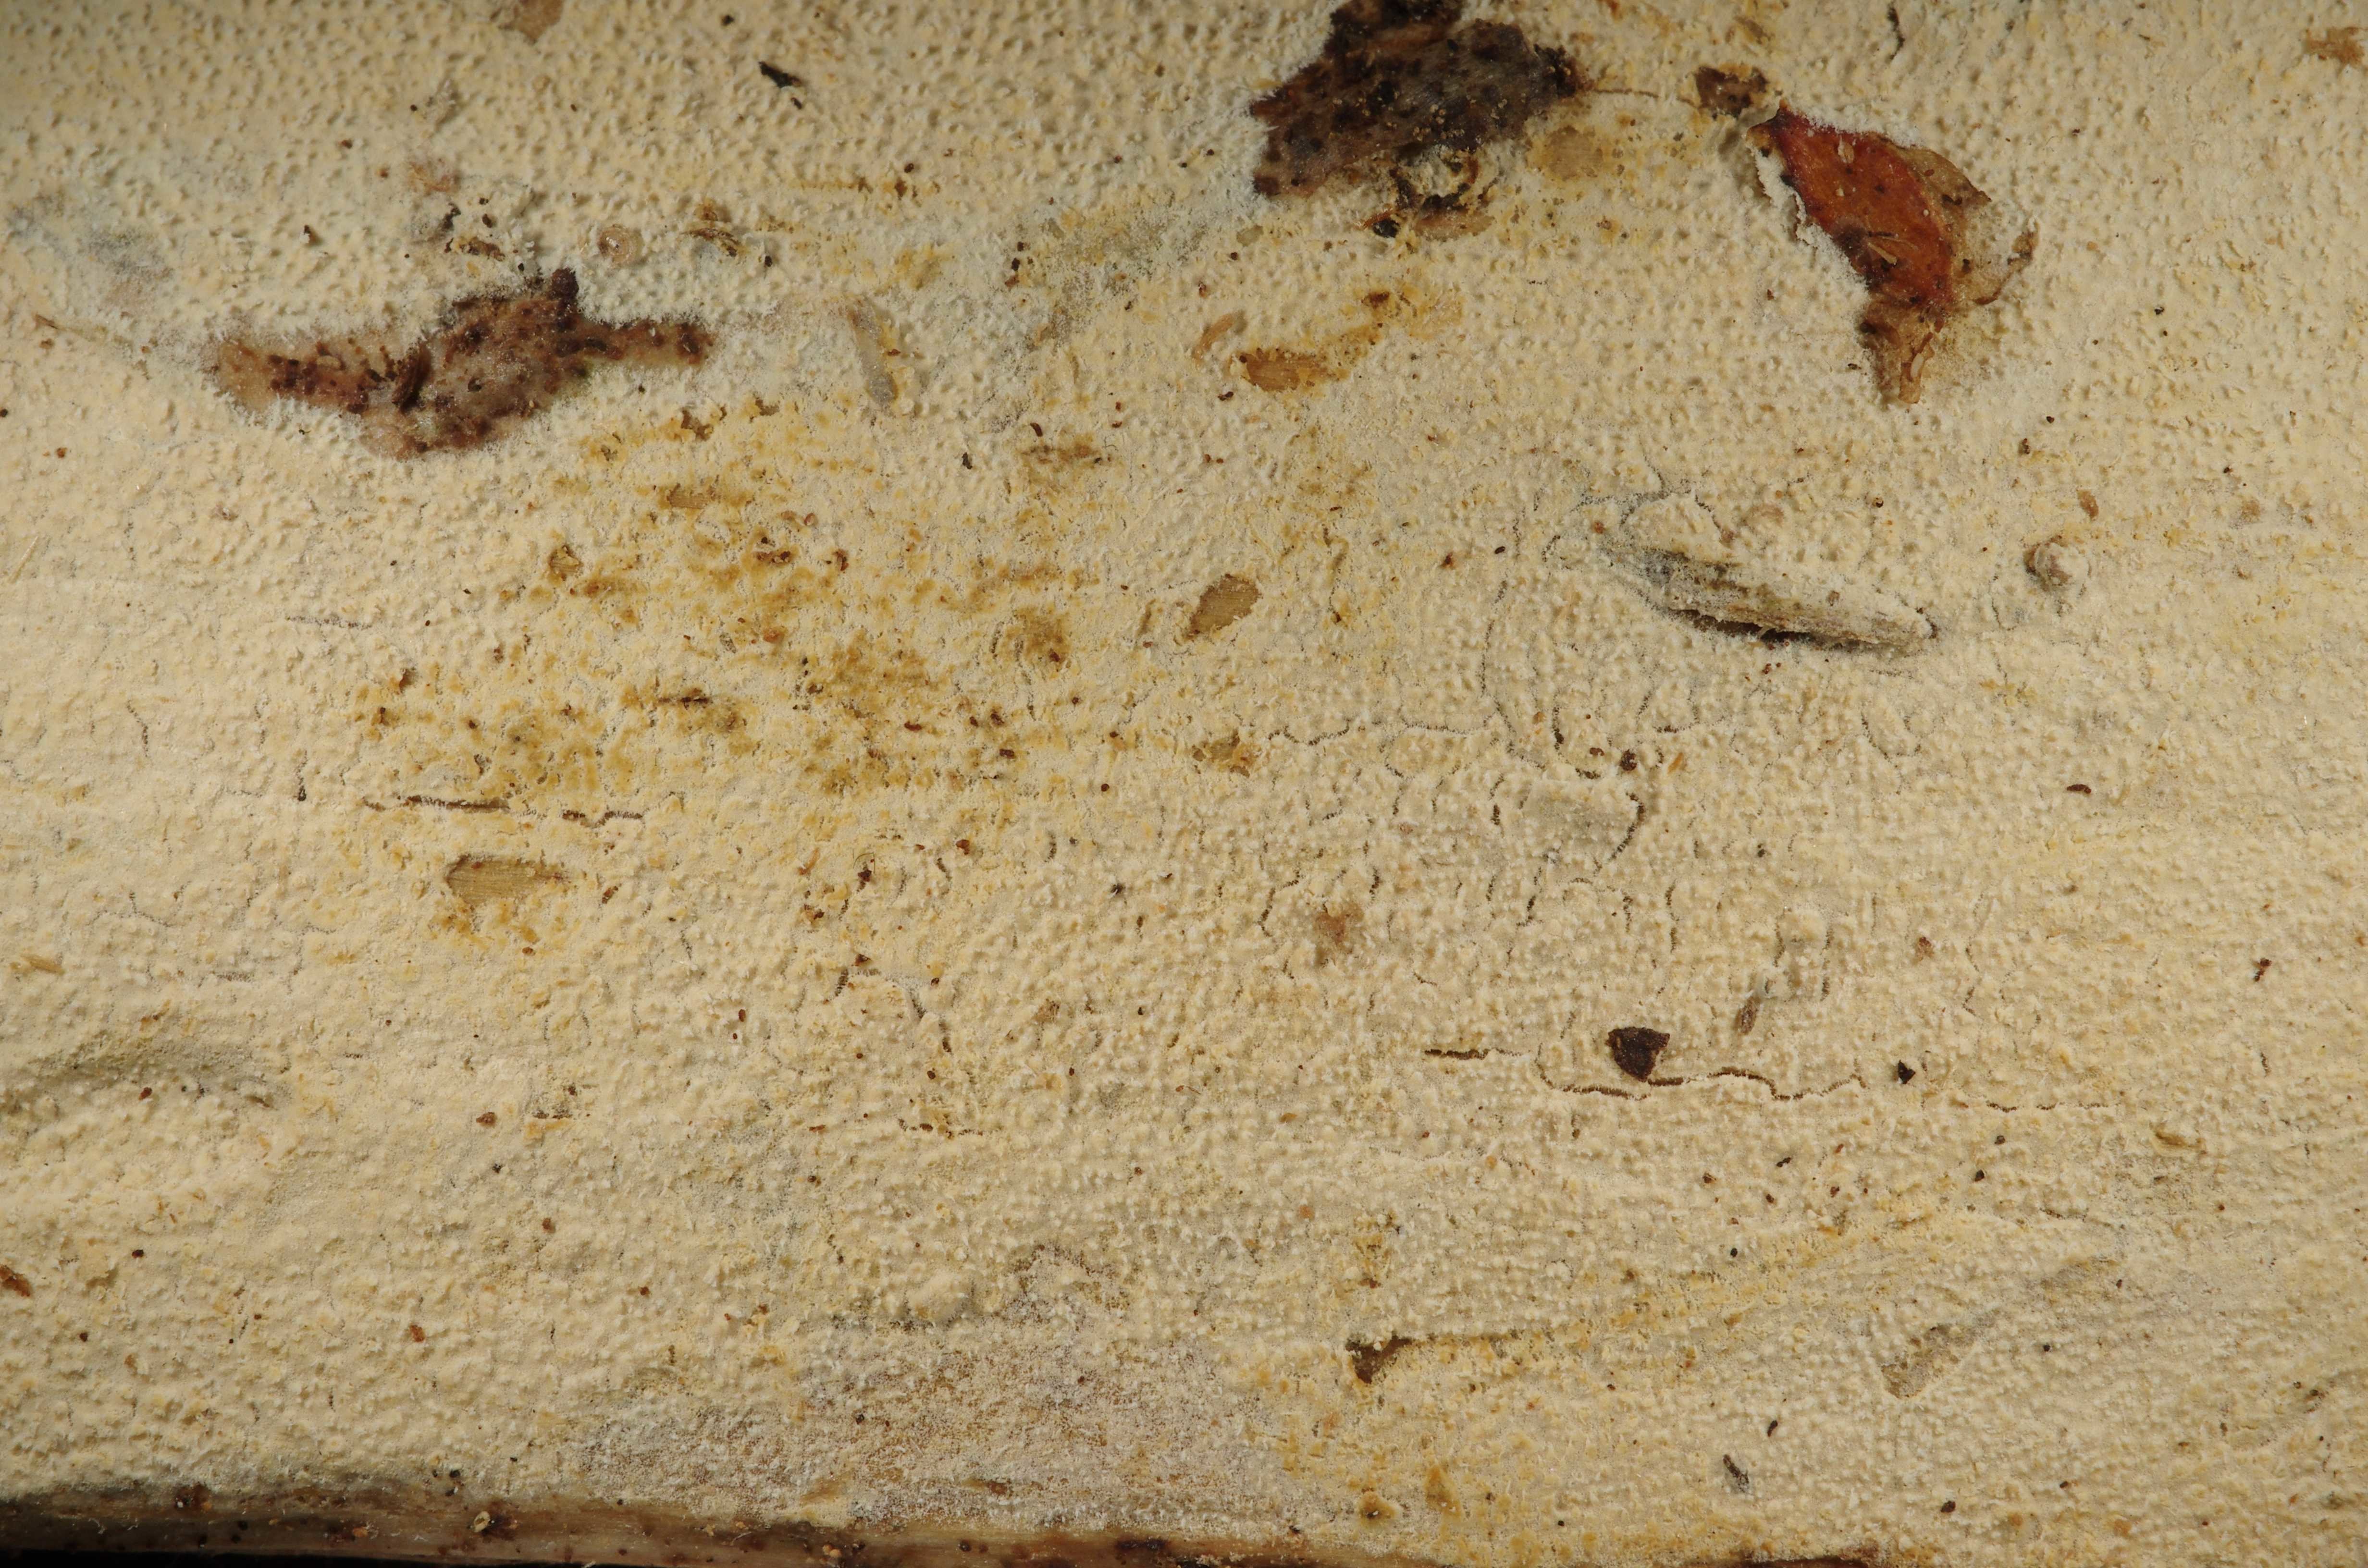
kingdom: Fungi
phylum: Basidiomycota
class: Agaricomycetes
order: Hymenochaetales
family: Schizoporaceae
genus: Xylodon
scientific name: Xylodon
